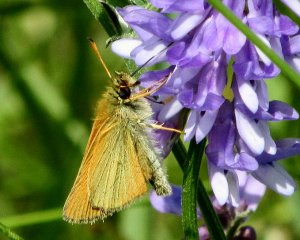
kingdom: Animalia
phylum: Arthropoda
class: Insecta
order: Lepidoptera
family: Hesperiidae
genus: Thymelicus
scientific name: Thymelicus lineola
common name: European Skipper
